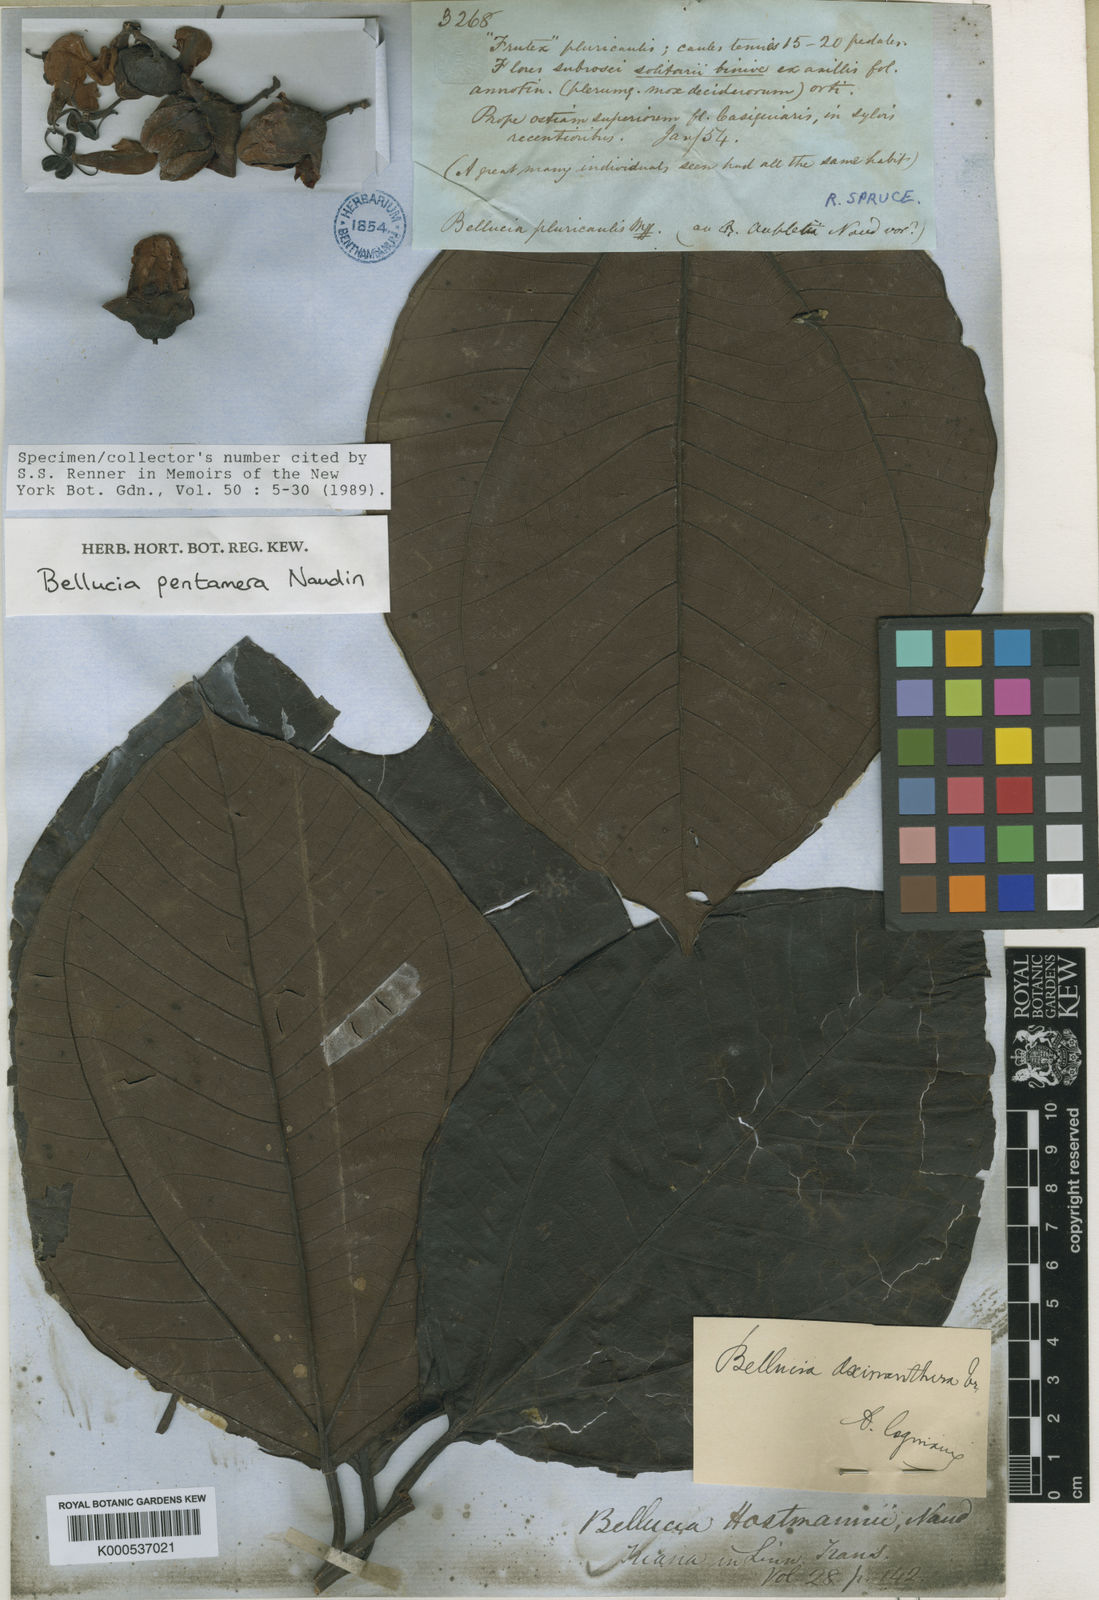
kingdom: Plantae
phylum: Tracheophyta
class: Magnoliopsida
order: Myrtales
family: Melastomataceae
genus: Bellucia
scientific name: Bellucia pentamera
